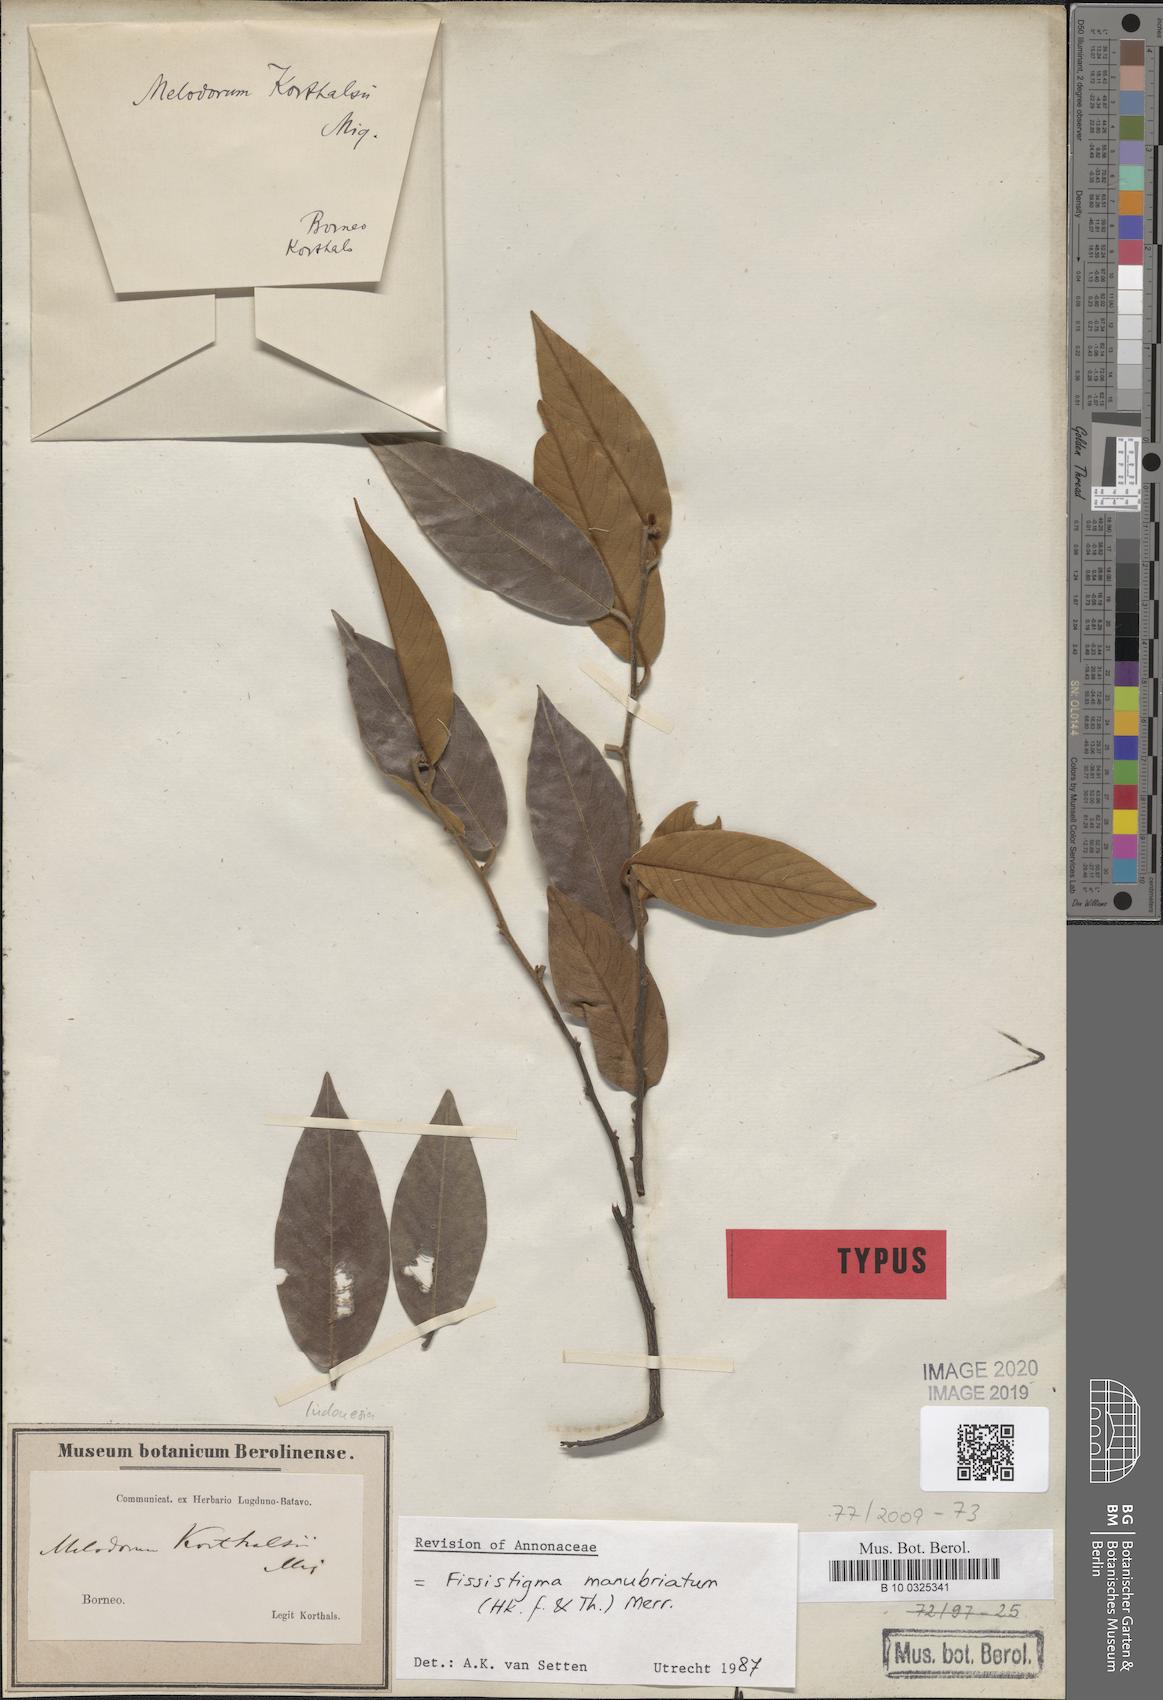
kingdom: Plantae
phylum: Tracheophyta
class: Magnoliopsida
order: Magnoliales
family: Annonaceae
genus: Fissistigma
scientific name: Fissistigma manubriatum
